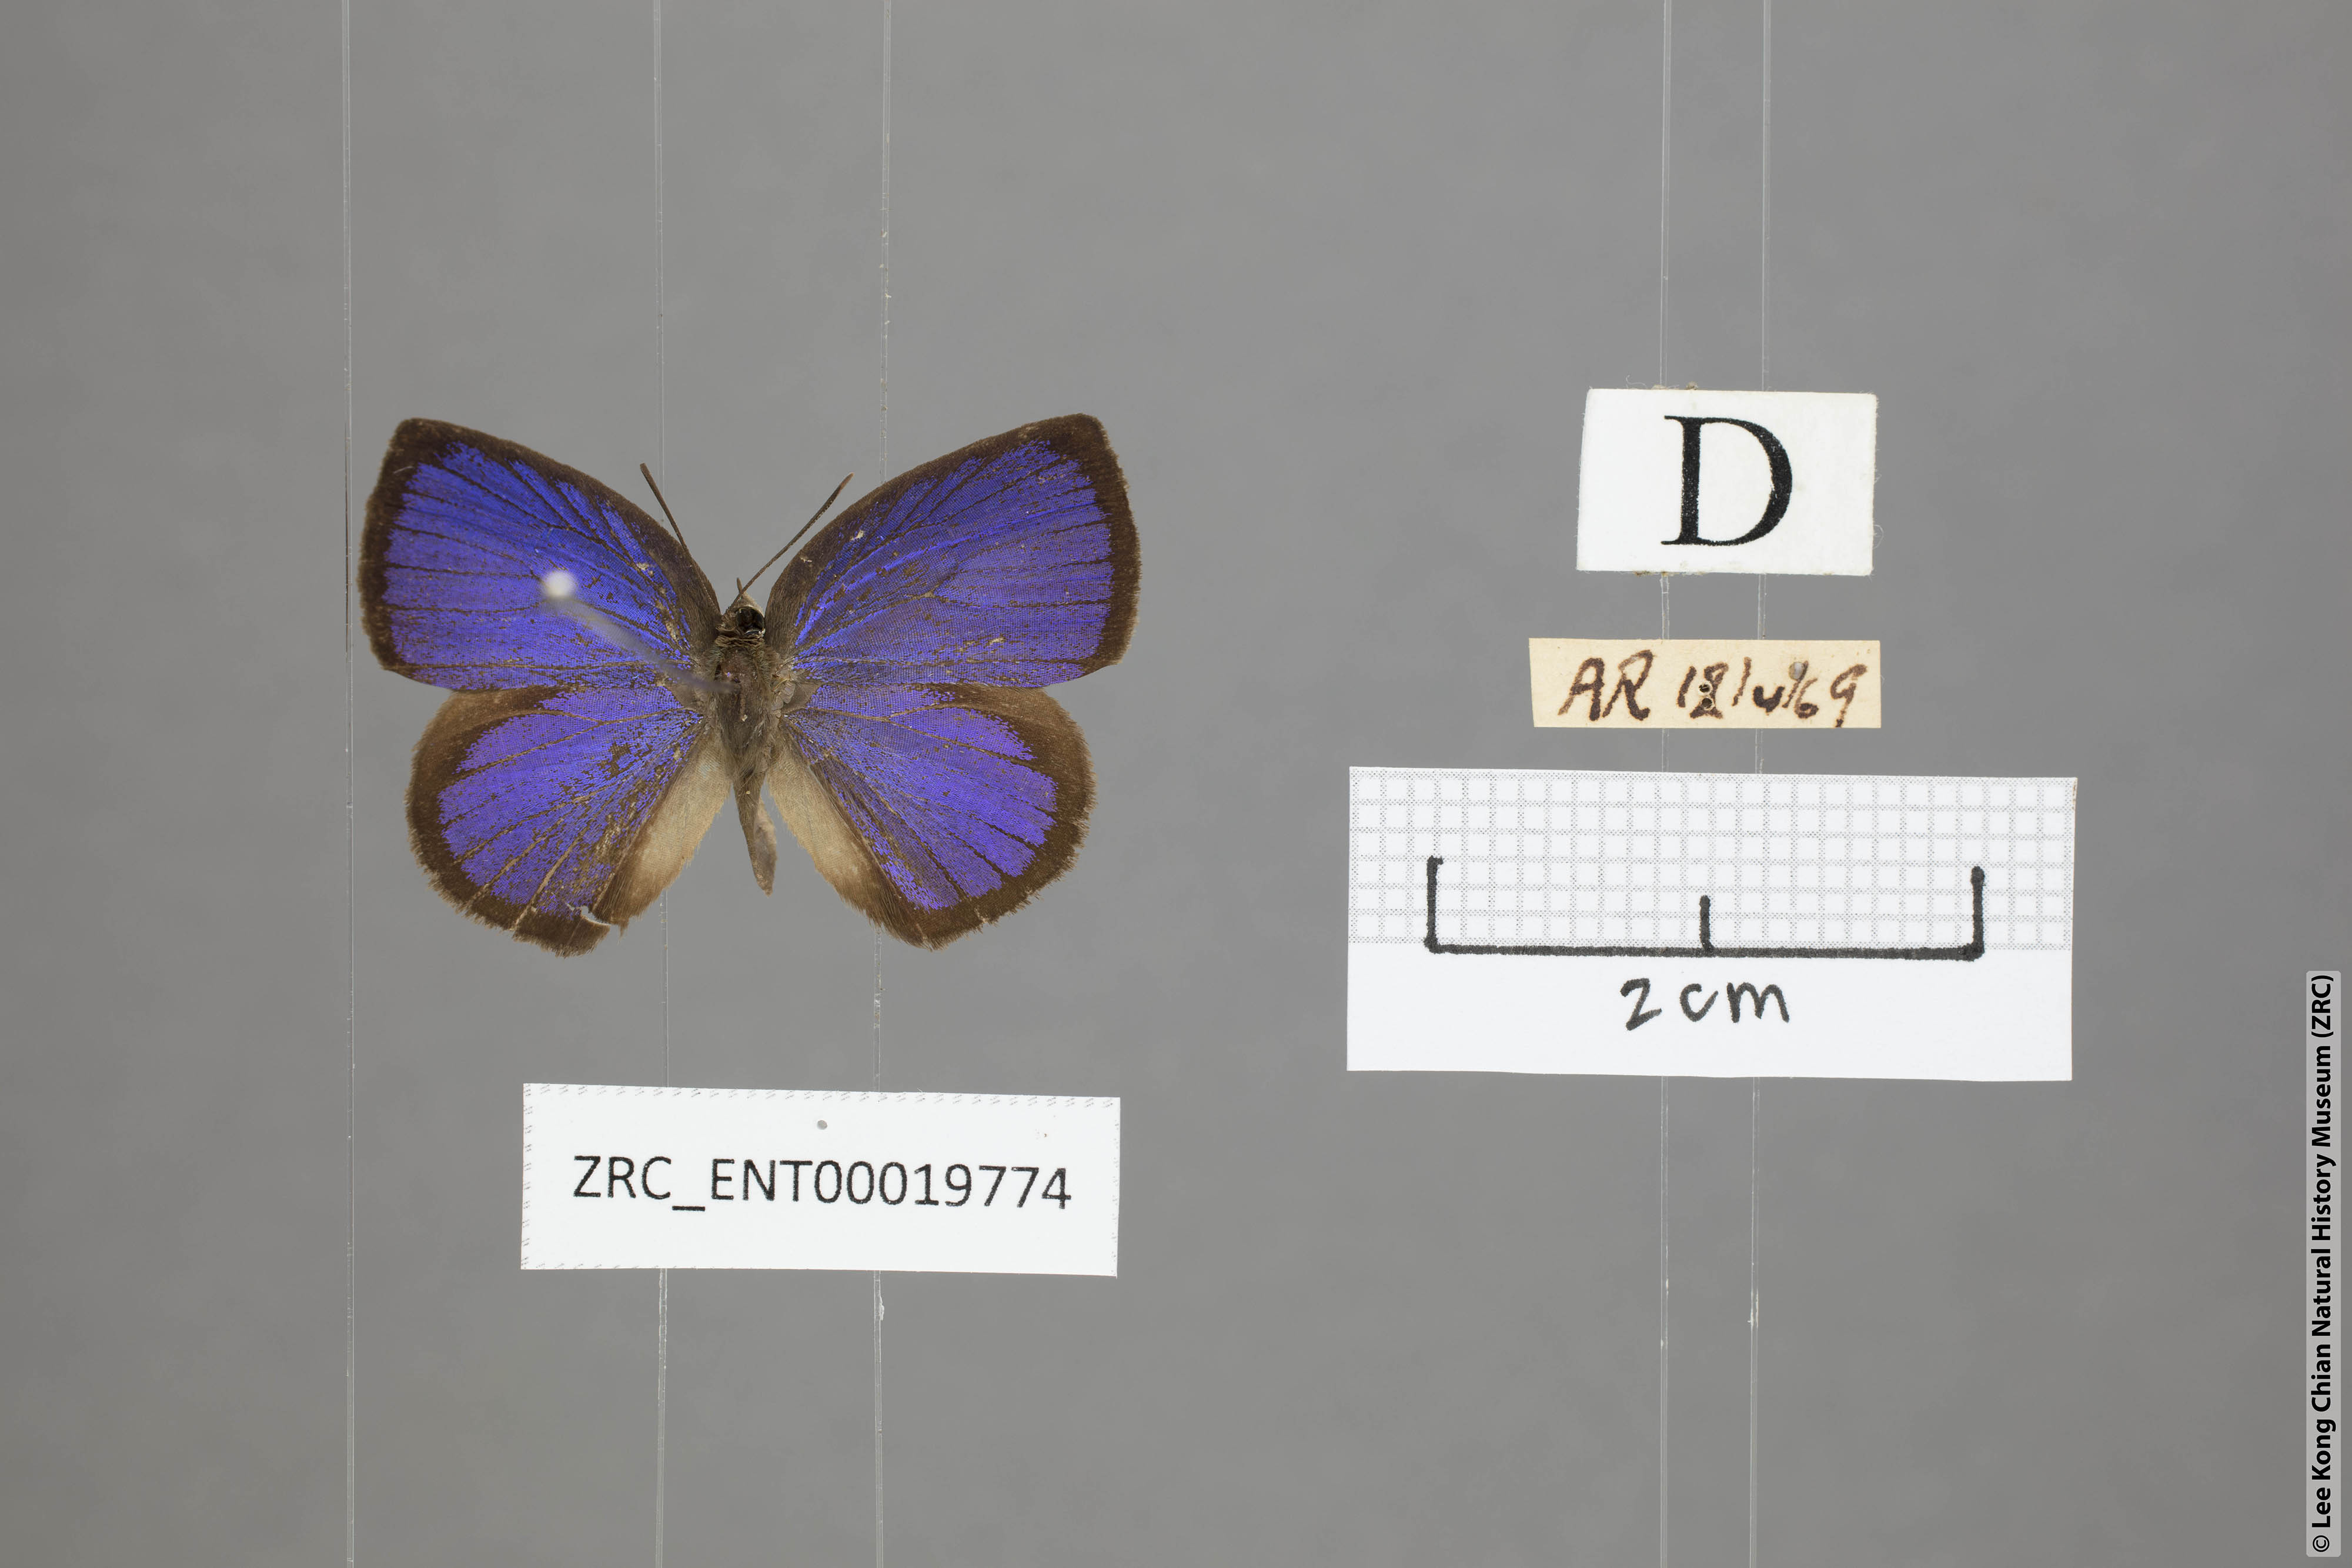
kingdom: Animalia
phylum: Arthropoda
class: Insecta
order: Lepidoptera
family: Lycaenidae
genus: Arhopala
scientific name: Arhopala perimuta
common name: Yellowdisc oakblue
